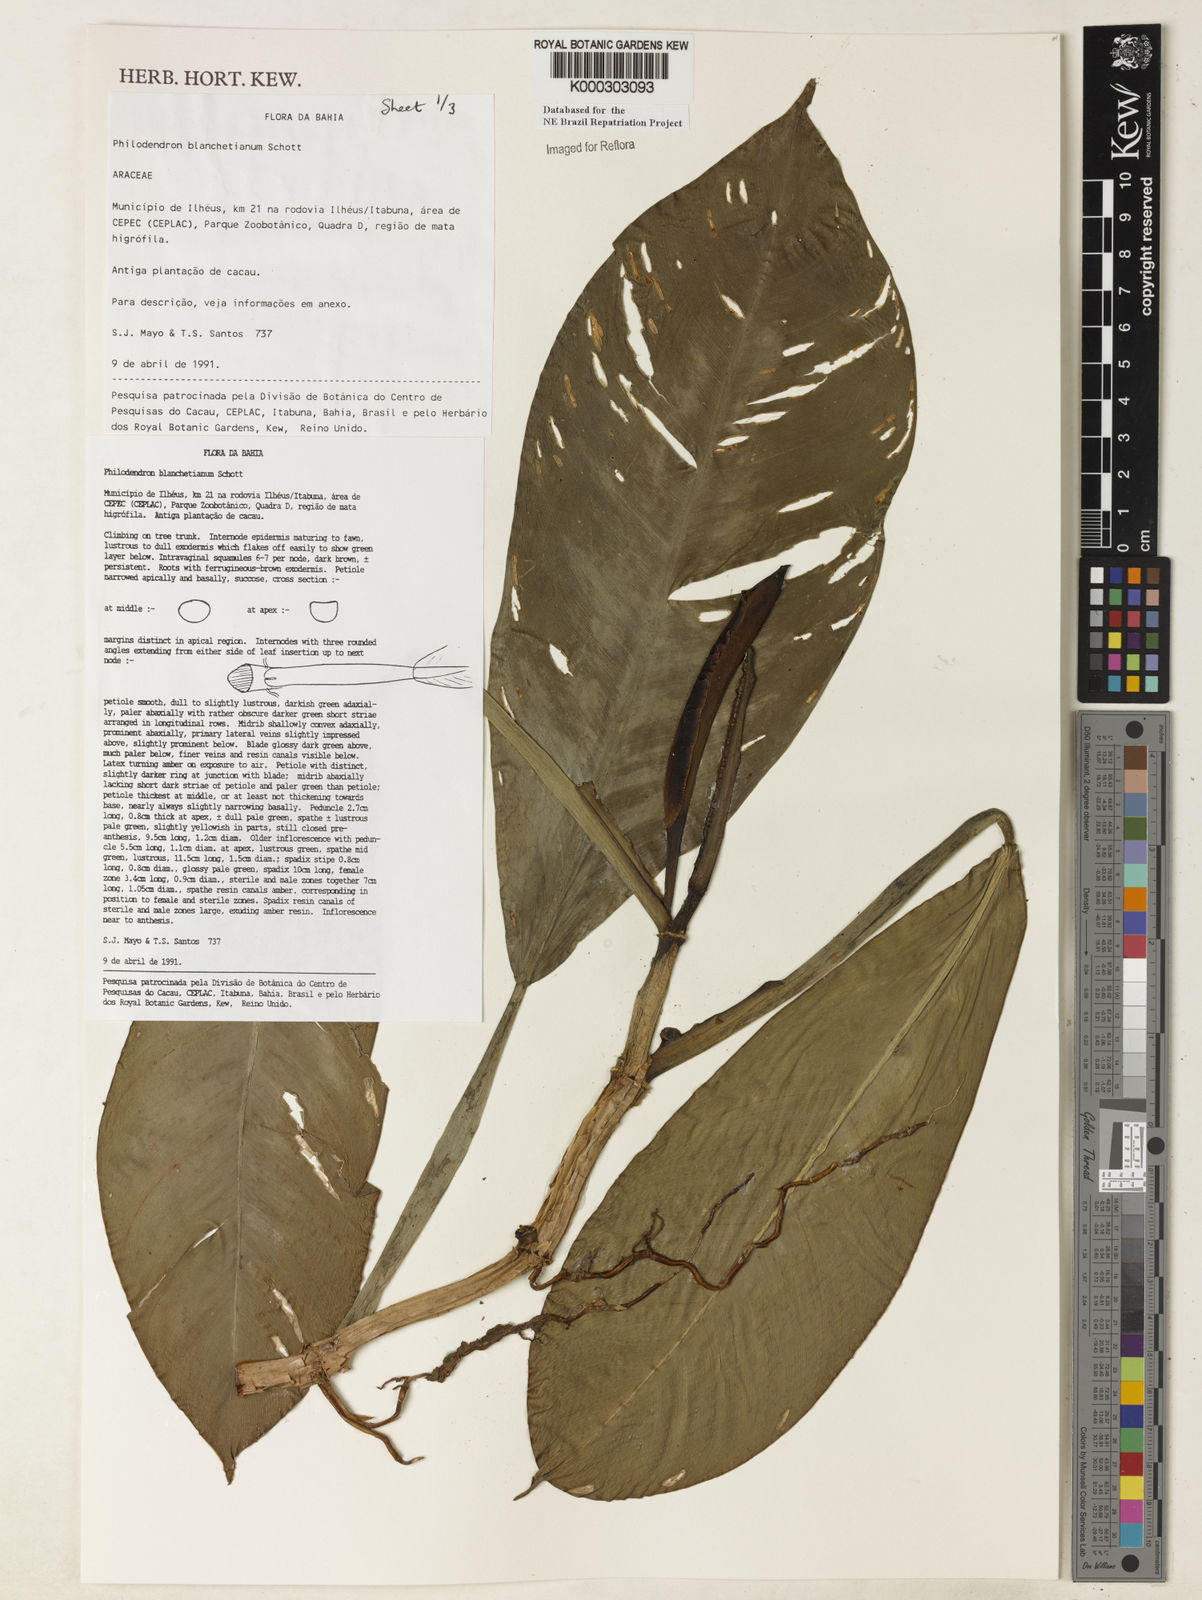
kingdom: Plantae
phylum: Tracheophyta
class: Liliopsida
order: Alismatales
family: Araceae
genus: Philodendron
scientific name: Philodendron blanchetianum
